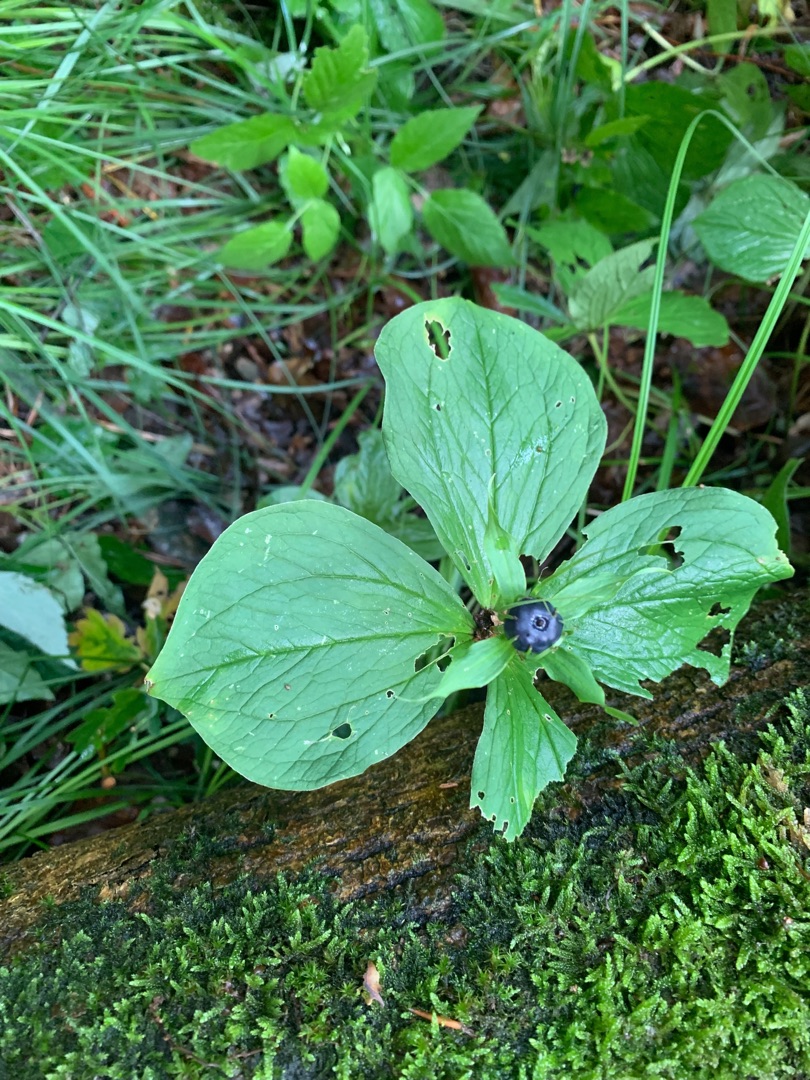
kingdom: Plantae
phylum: Tracheophyta
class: Liliopsida
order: Liliales
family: Melanthiaceae
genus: Paris
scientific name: Paris quadrifolia
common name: Firblad
